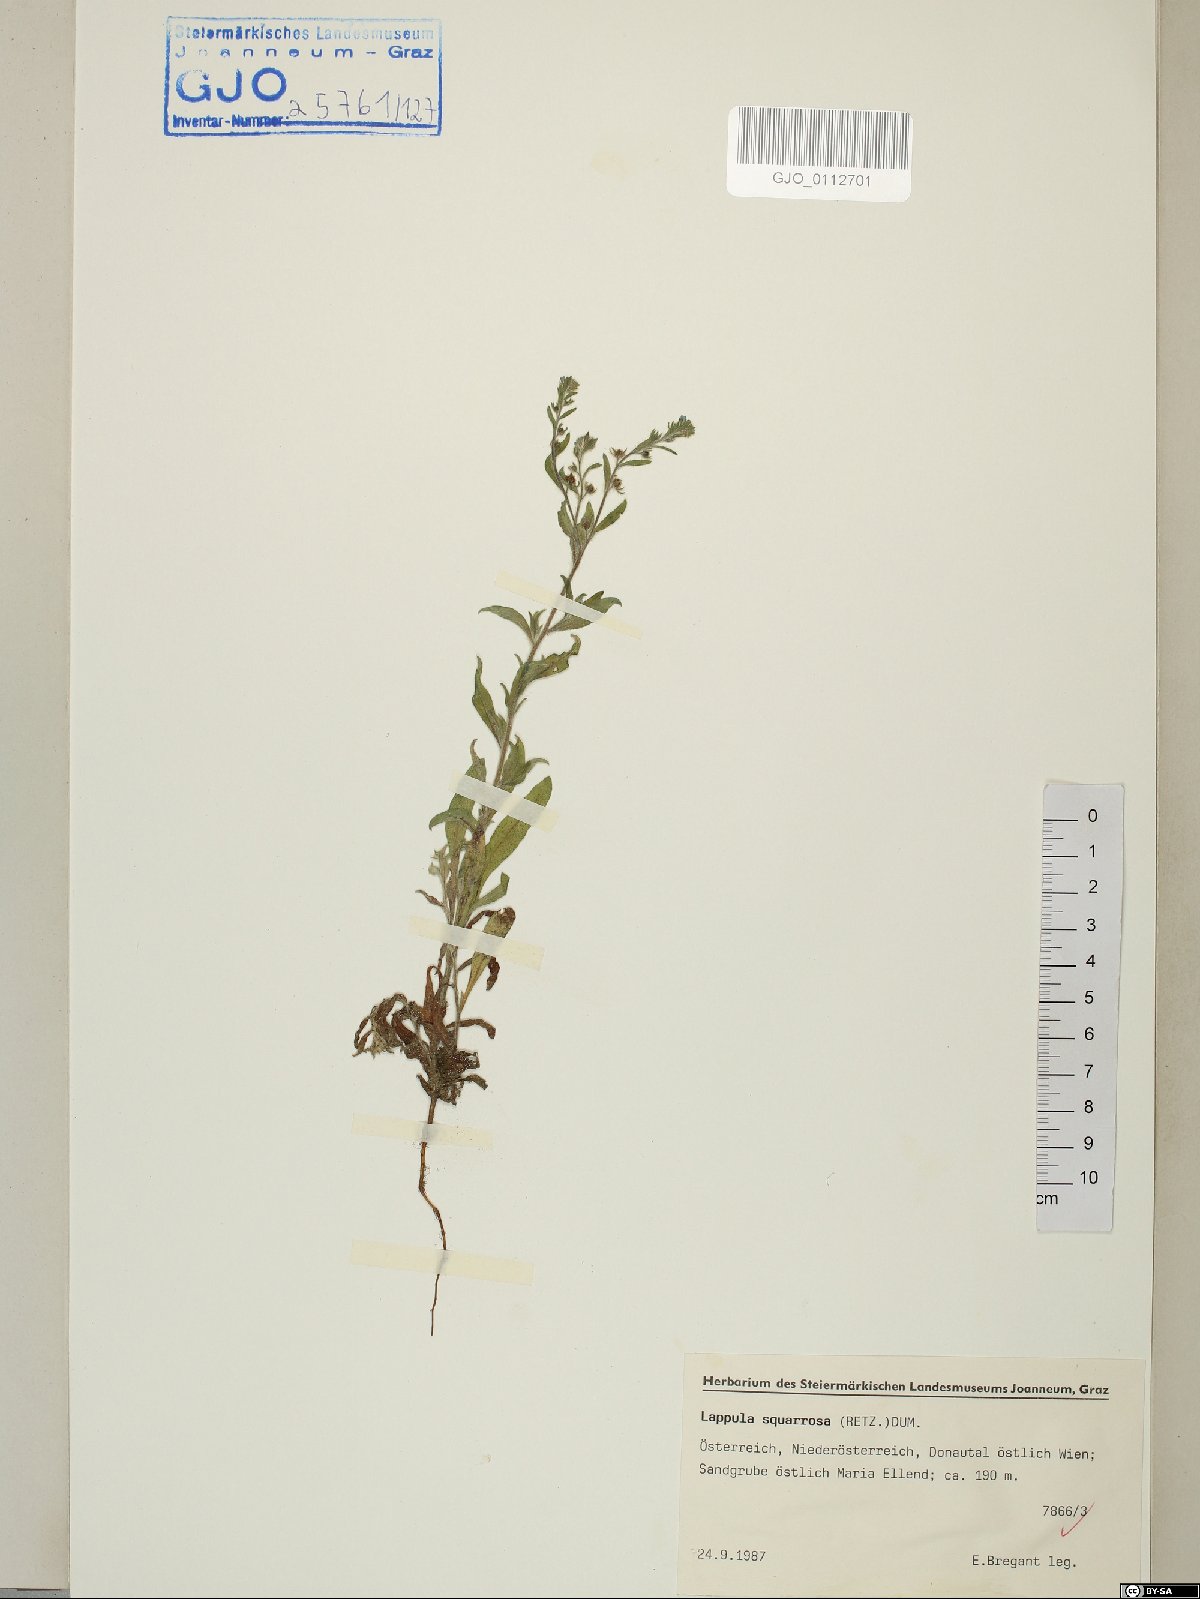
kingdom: Plantae
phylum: Tracheophyta
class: Magnoliopsida
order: Boraginales
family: Boraginaceae
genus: Lappula
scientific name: Lappula squarrosa
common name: European stickseed
